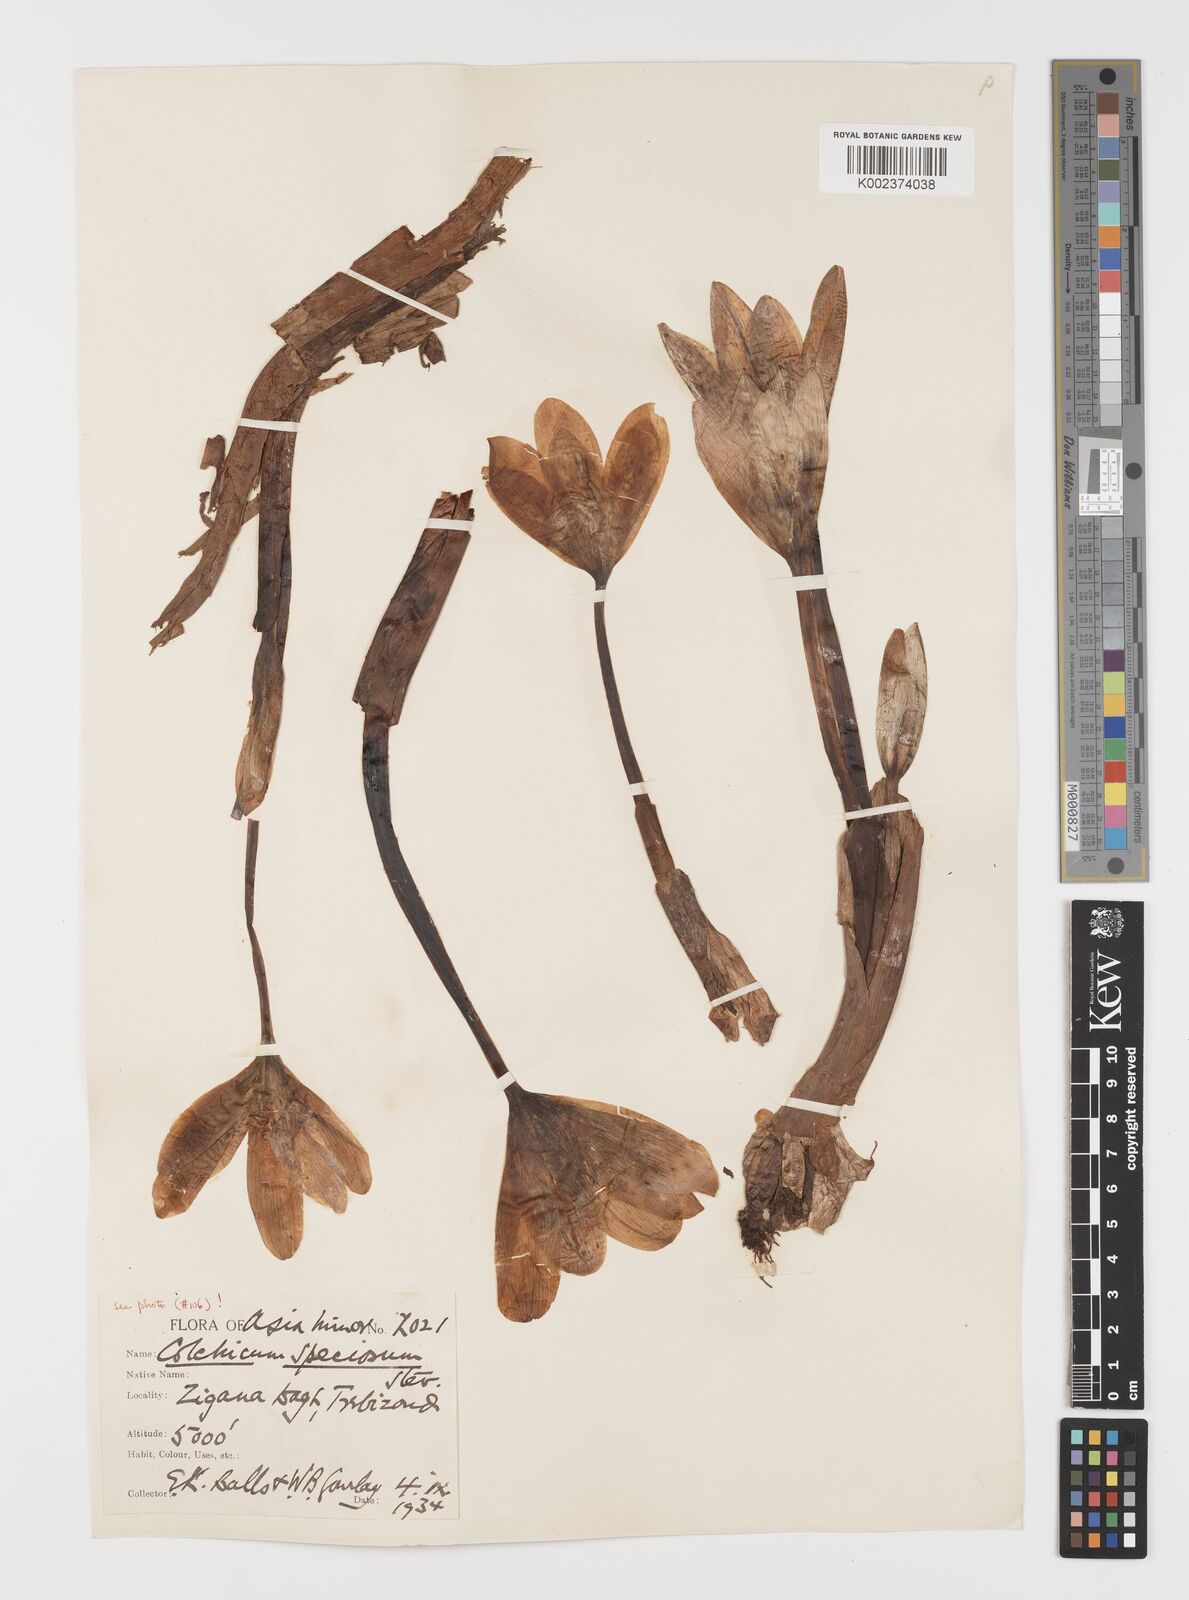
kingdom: Plantae
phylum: Tracheophyta
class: Liliopsida
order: Liliales
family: Colchicaceae
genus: Colchicum
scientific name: Colchicum speciosum
